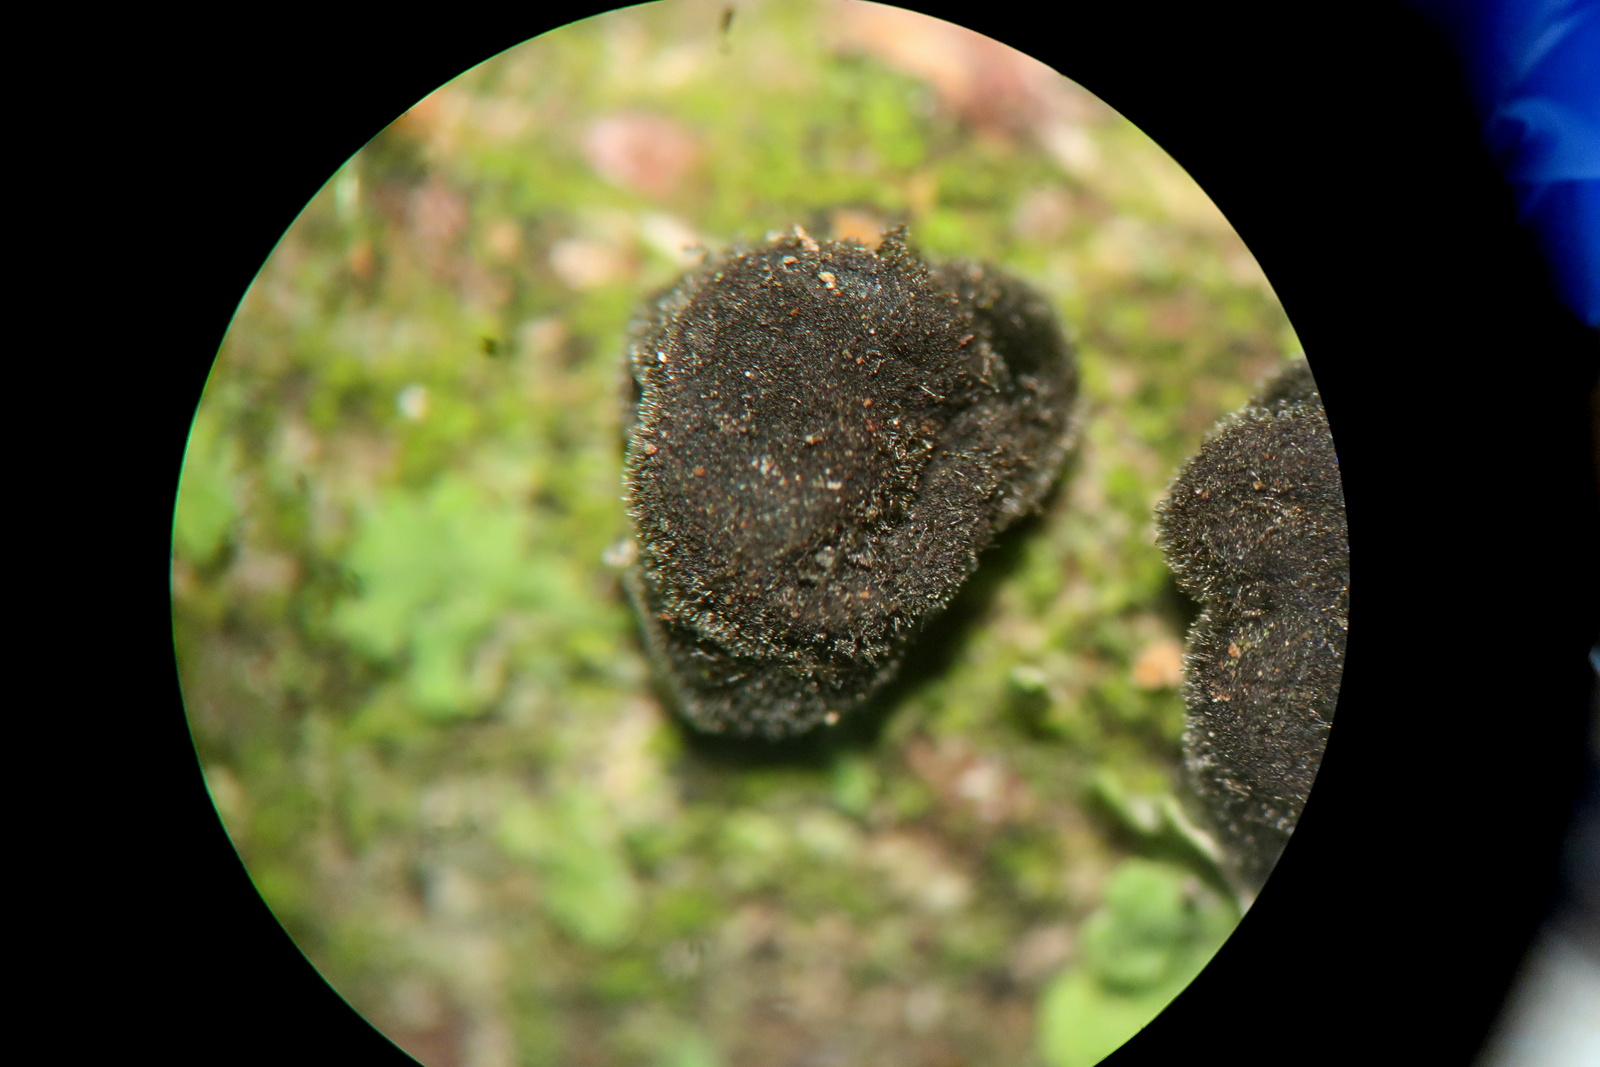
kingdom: Fungi
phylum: Ascomycota
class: Dothideomycetes
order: Pleosporales
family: Massarinaceae
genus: Helminthosporium
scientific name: Helminthosporium oligosporum
